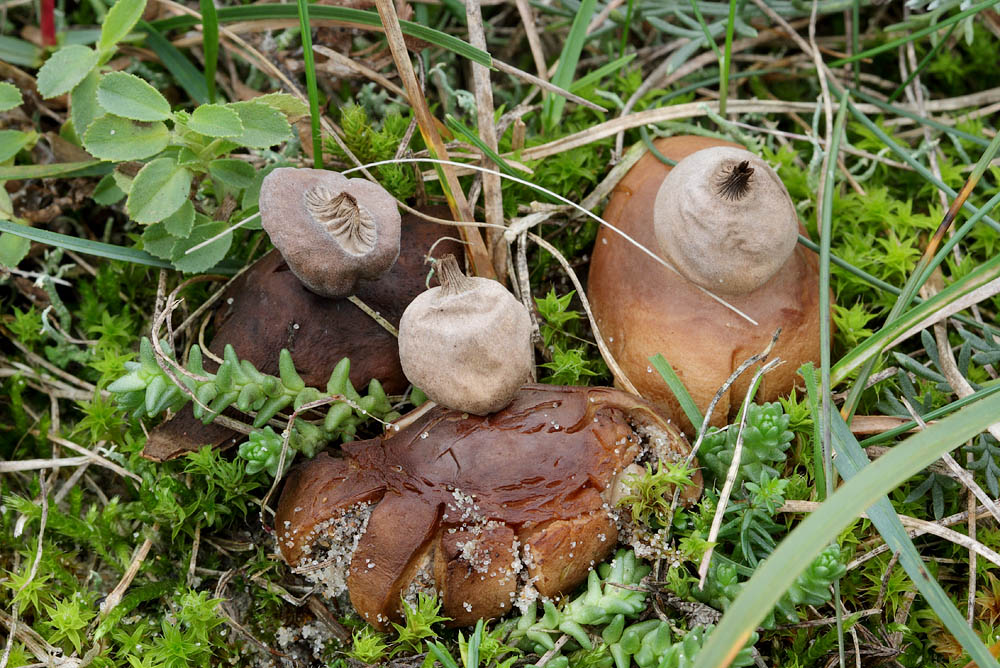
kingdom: Fungi
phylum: Basidiomycota
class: Agaricomycetes
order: Geastrales
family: Geastraceae
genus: Geastrum
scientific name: Geastrum striatum
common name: dværg-stjernebold
